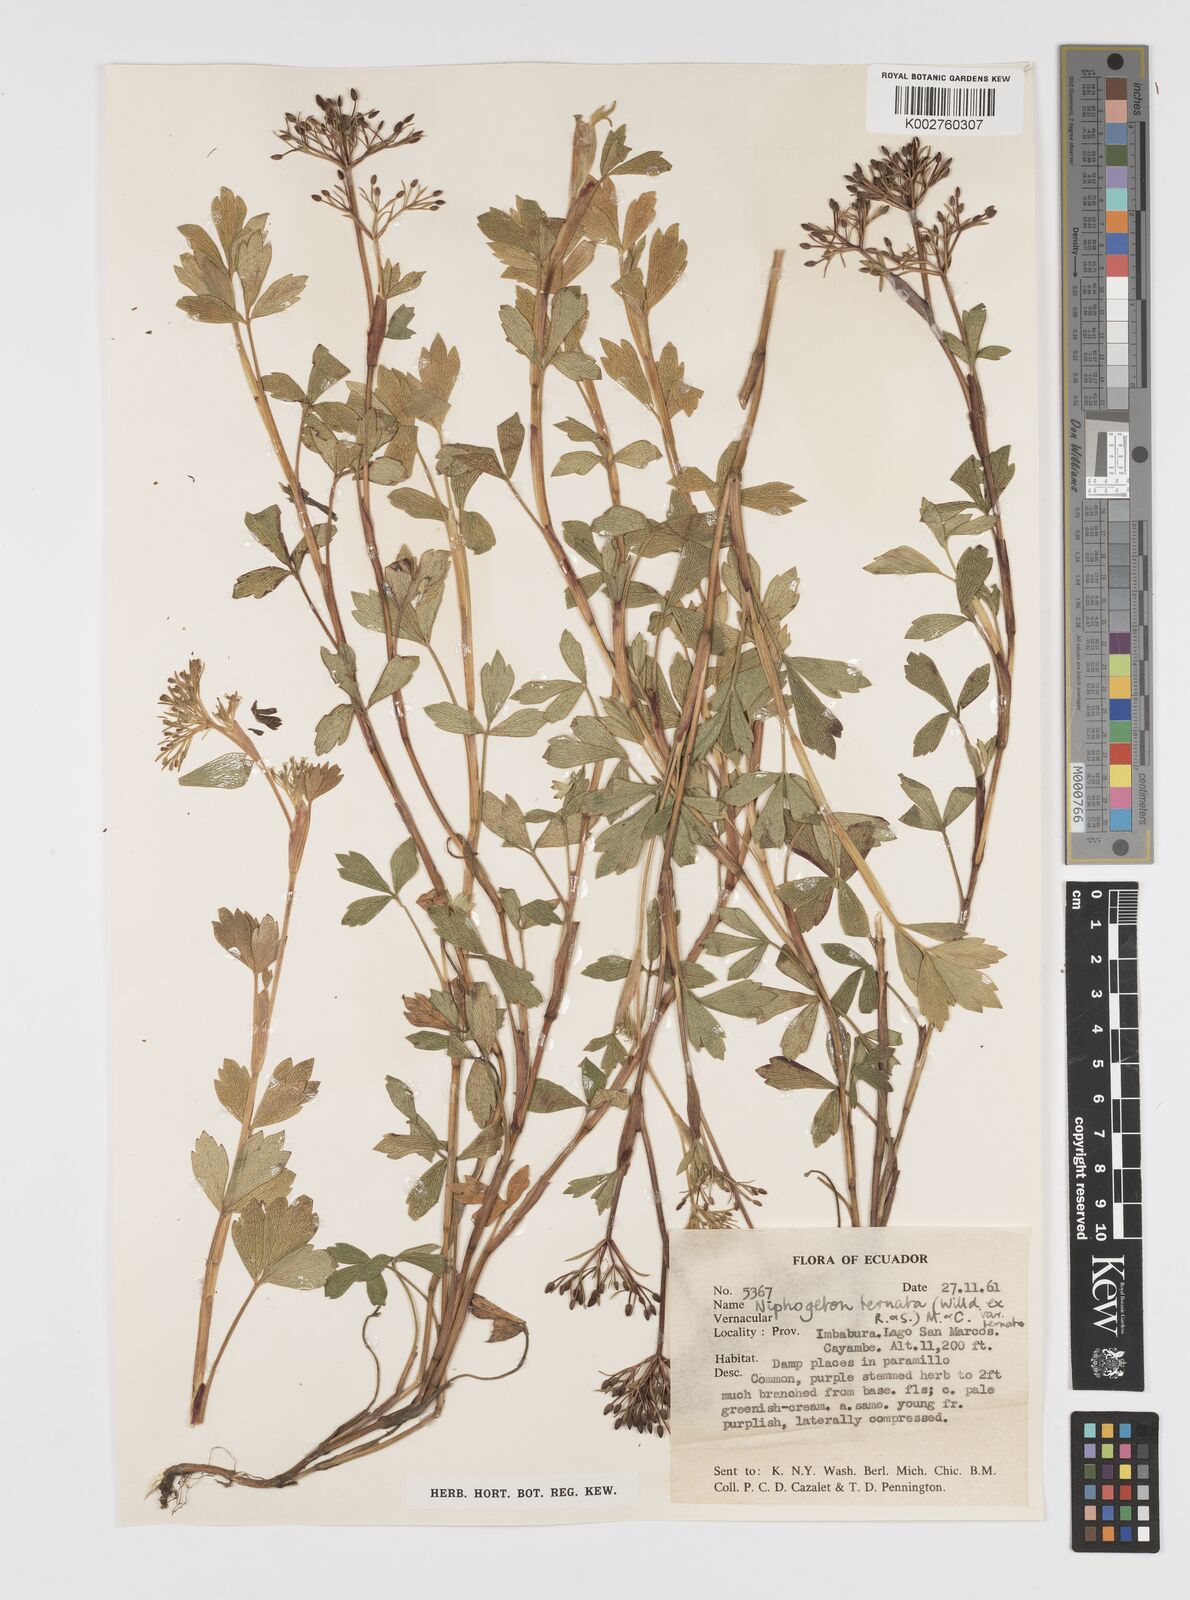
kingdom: Plantae
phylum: Tracheophyta
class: Magnoliopsida
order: Apiales
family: Apiaceae
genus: Niphogeton
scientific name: Niphogeton ternata
